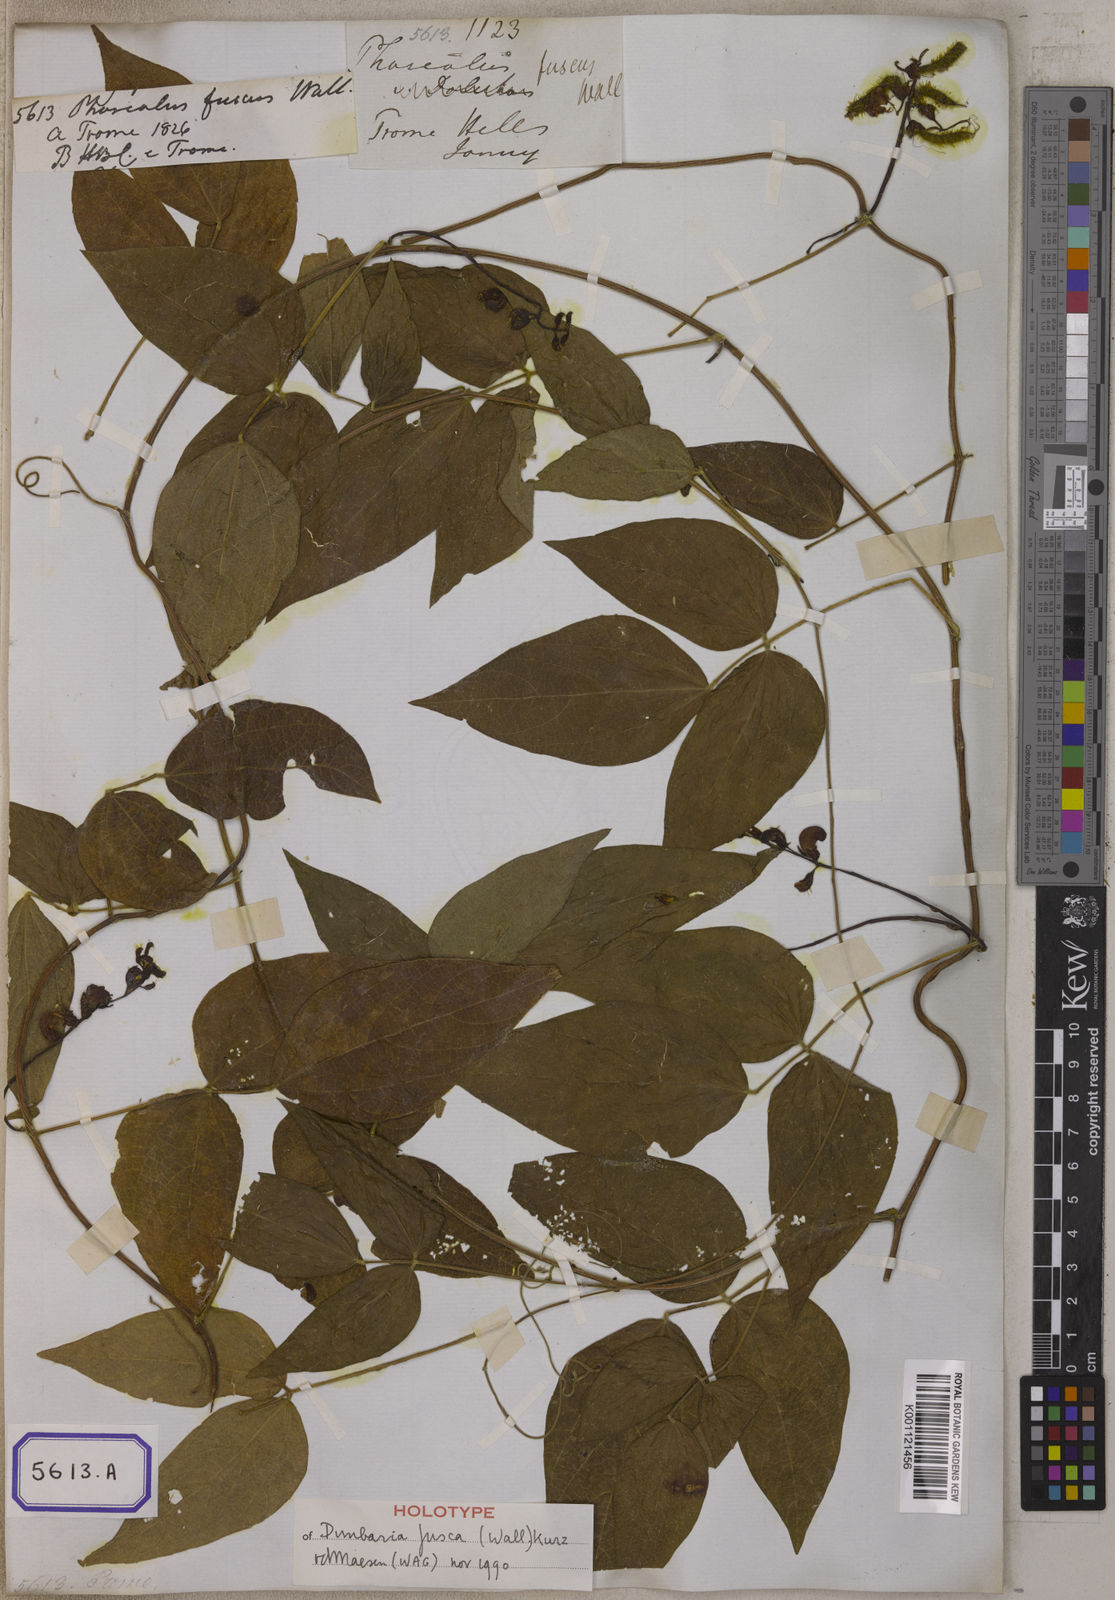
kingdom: Plantae
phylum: Tracheophyta
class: Magnoliopsida
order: Fabales
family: Fabaceae
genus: Dunbaria
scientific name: Dunbaria fusca
